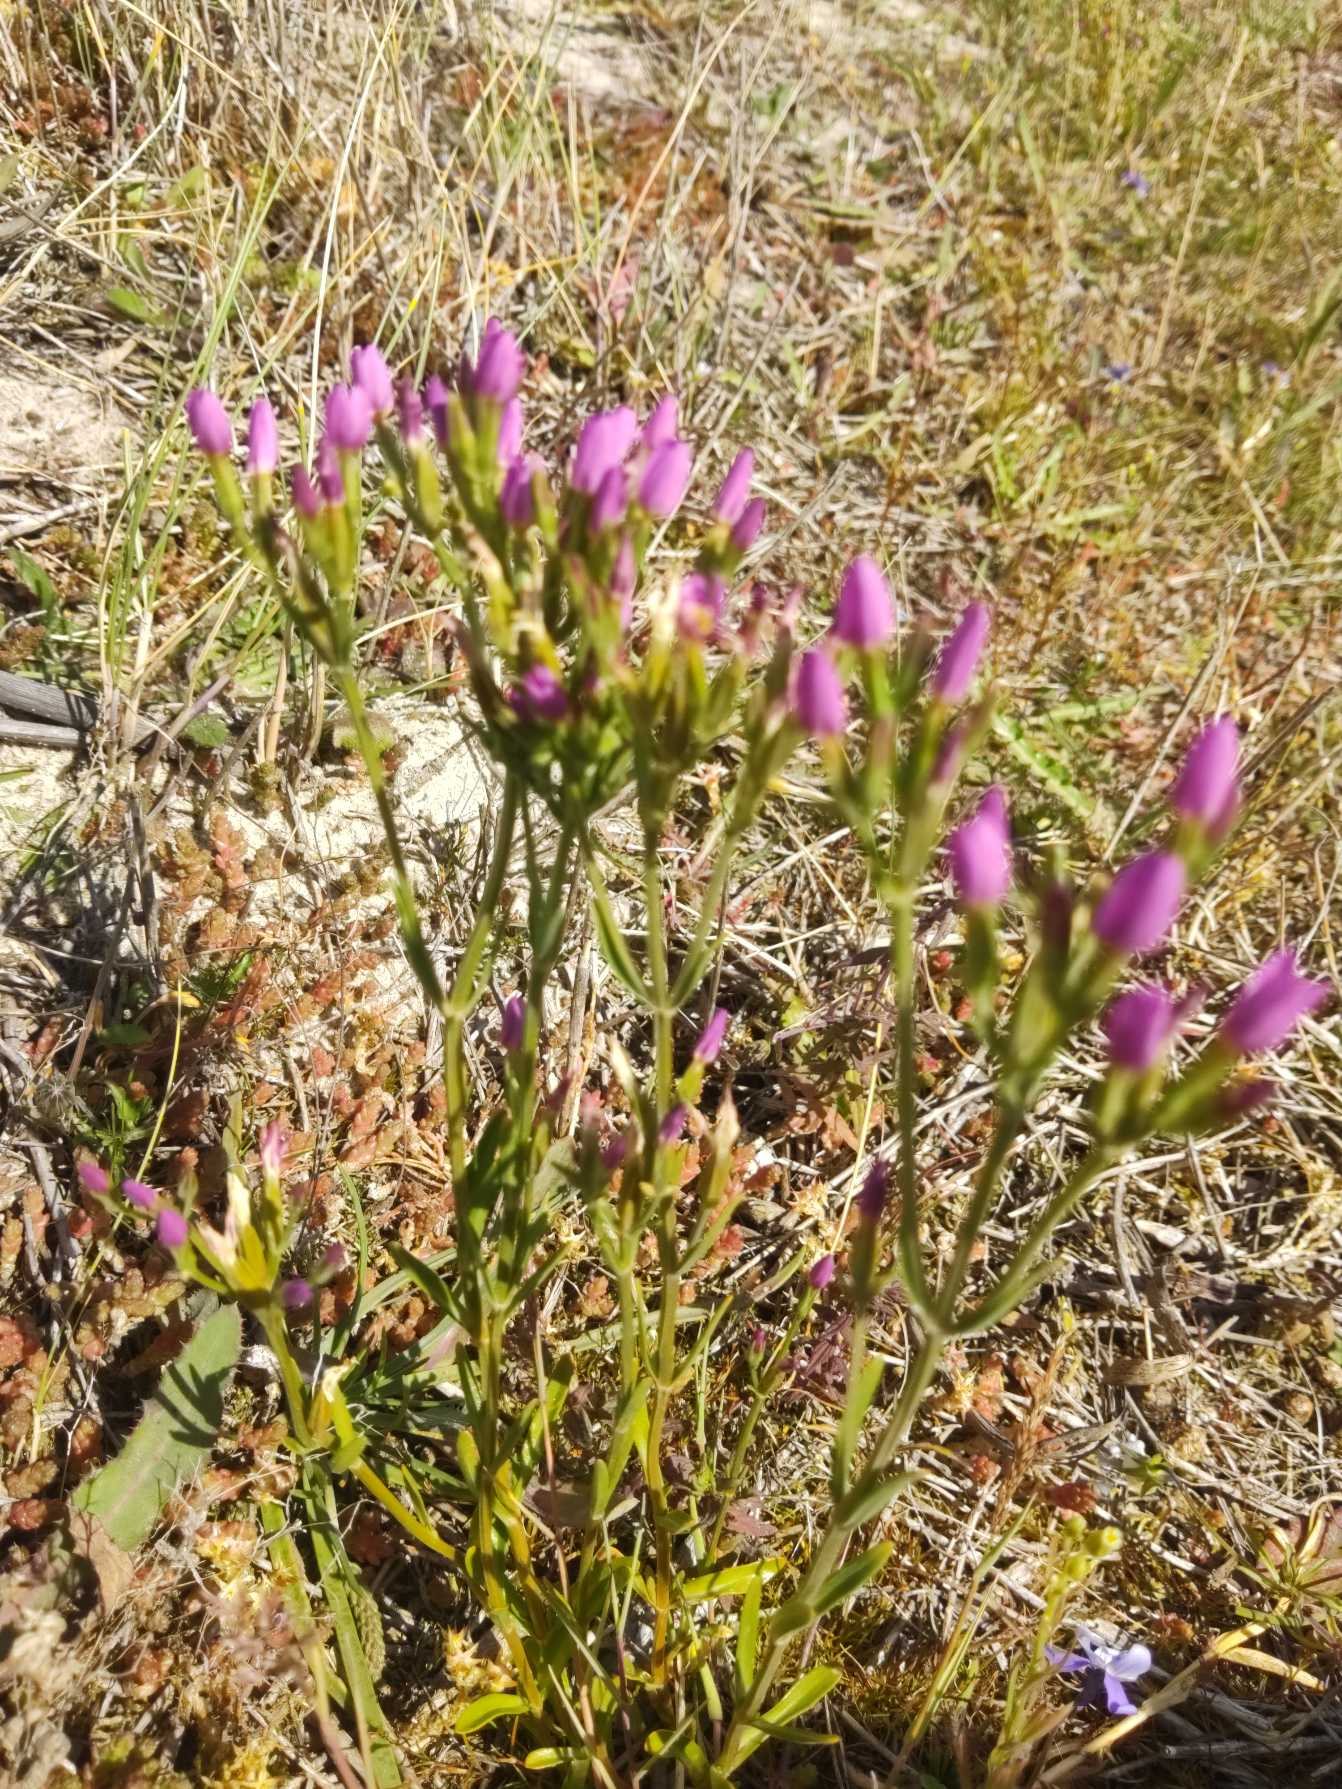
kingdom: Plantae
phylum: Tracheophyta
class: Magnoliopsida
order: Gentianales
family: Gentianaceae
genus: Centaurium
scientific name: Centaurium littorale
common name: Strand-tusindgylden
